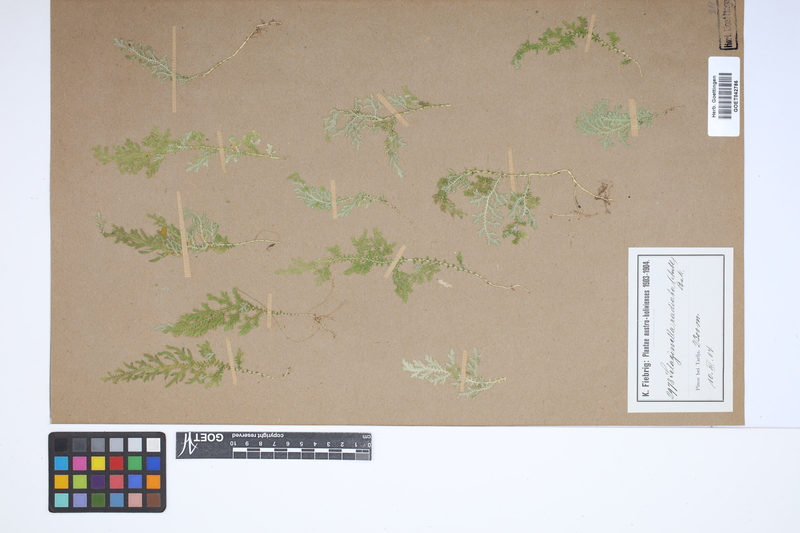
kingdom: Plantae
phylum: Tracheophyta
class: Lycopodiopsida
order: Selaginellales
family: Selaginellaceae
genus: Selaginella
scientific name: Selaginella radiata
